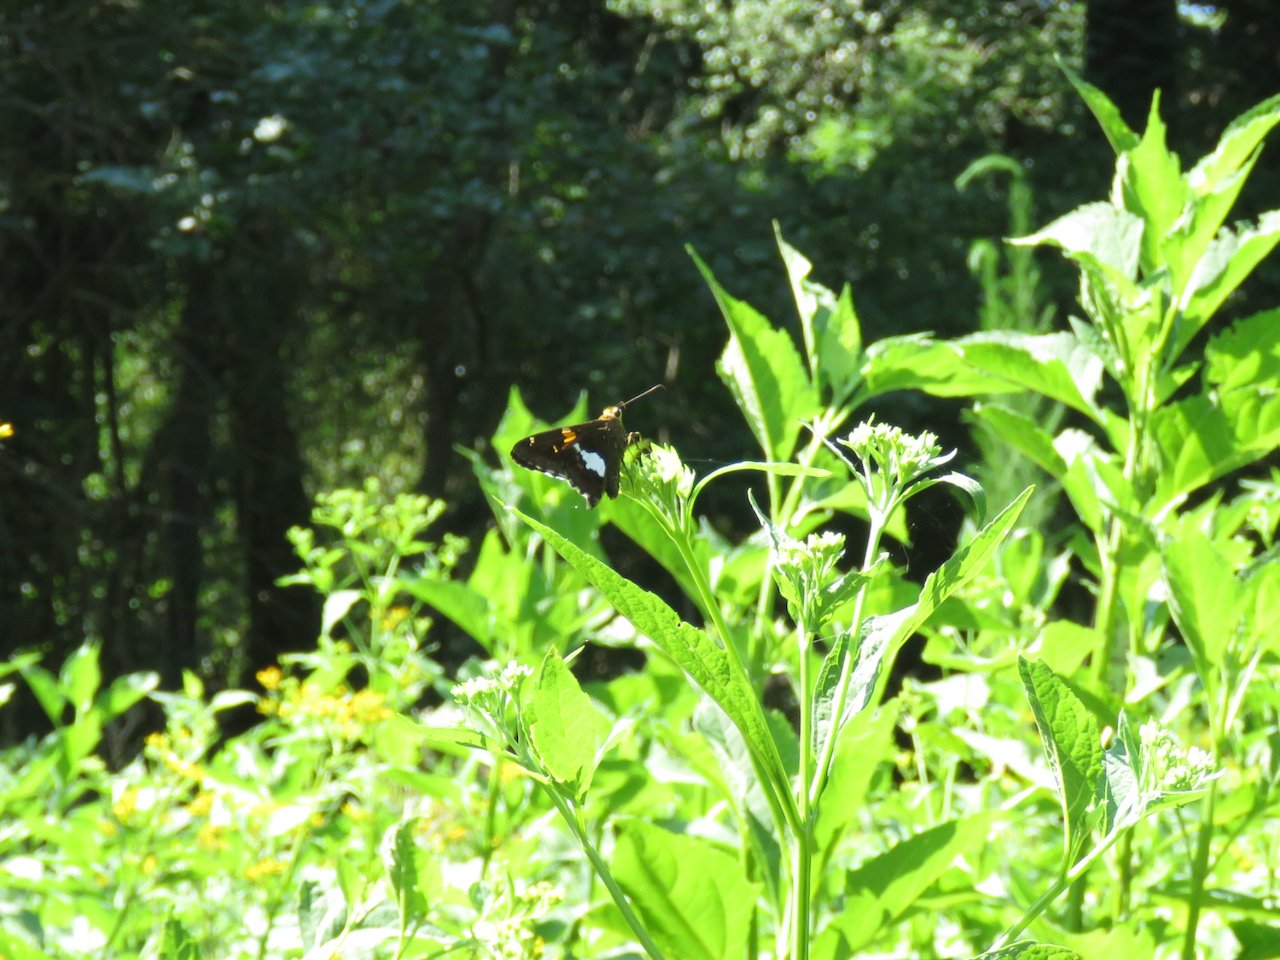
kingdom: Animalia
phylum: Arthropoda
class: Insecta
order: Lepidoptera
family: Hesperiidae
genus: Epargyreus
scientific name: Epargyreus clarus
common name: Silver-spotted Skipper
